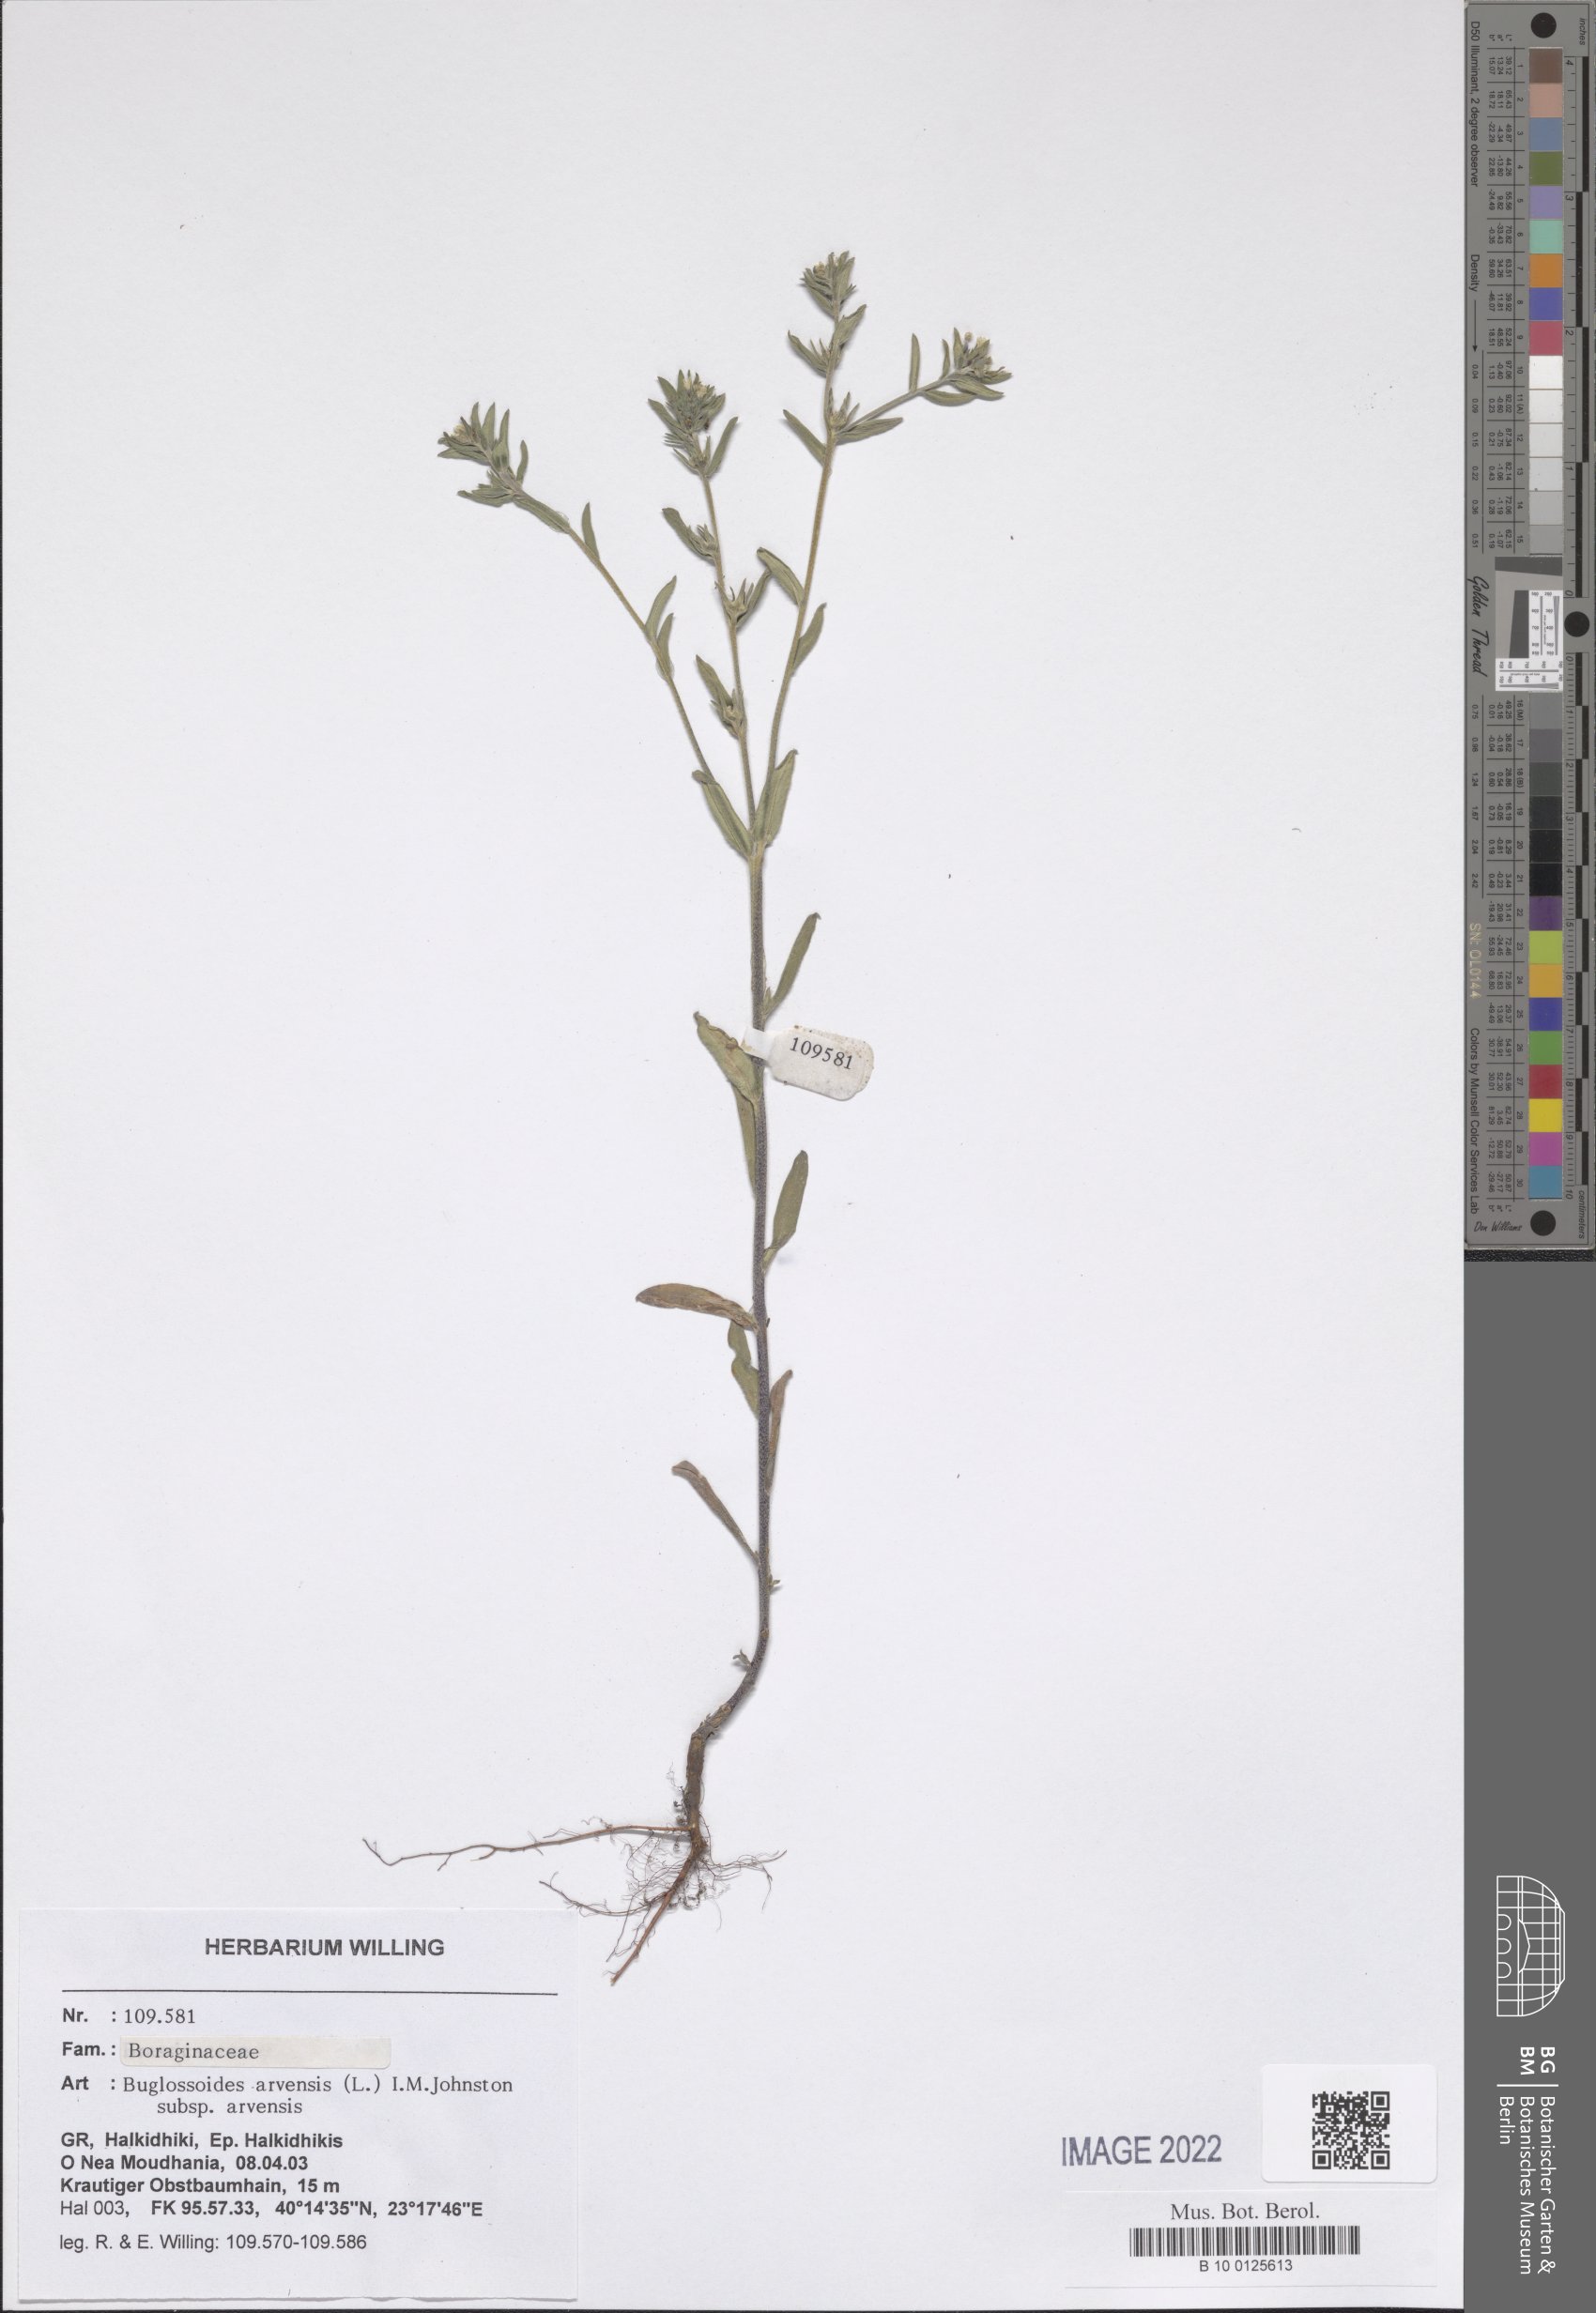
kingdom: Plantae
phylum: Tracheophyta
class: Magnoliopsida
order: Boraginales
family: Boraginaceae
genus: Buglossoides
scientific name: Buglossoides arvensis
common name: Corn gromwell
